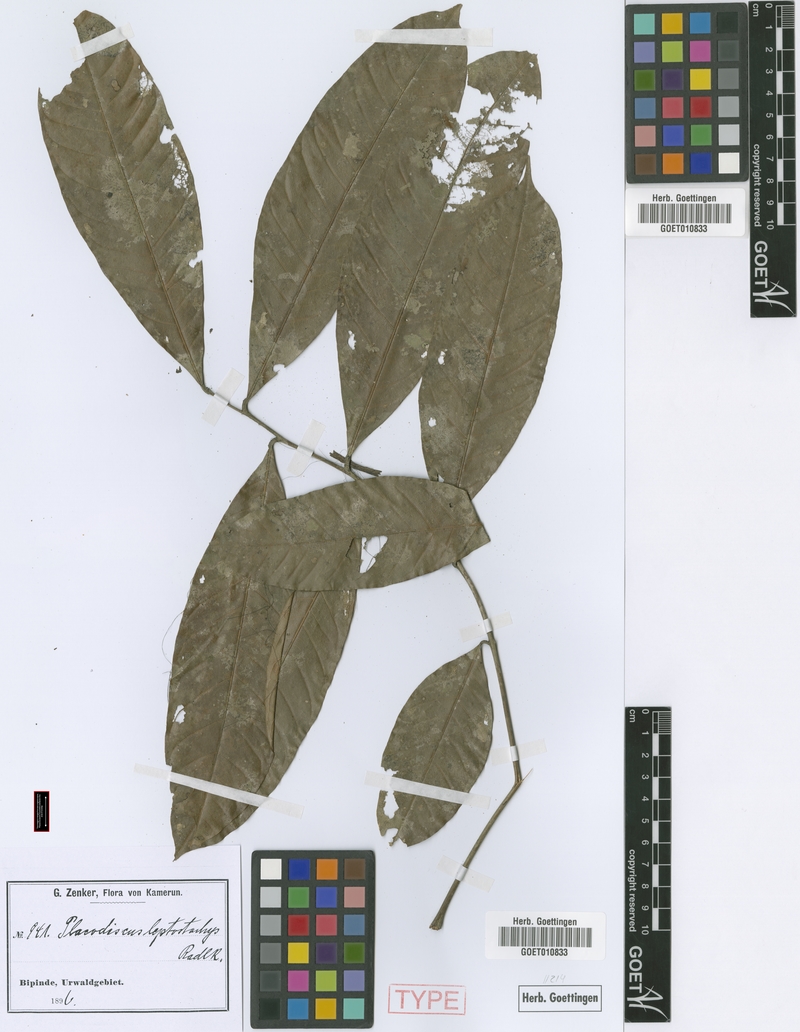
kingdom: Plantae
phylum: Tracheophyta
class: Magnoliopsida
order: Sapindales
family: Sapindaceae
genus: Placodiscus
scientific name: Placodiscus glandulosus
